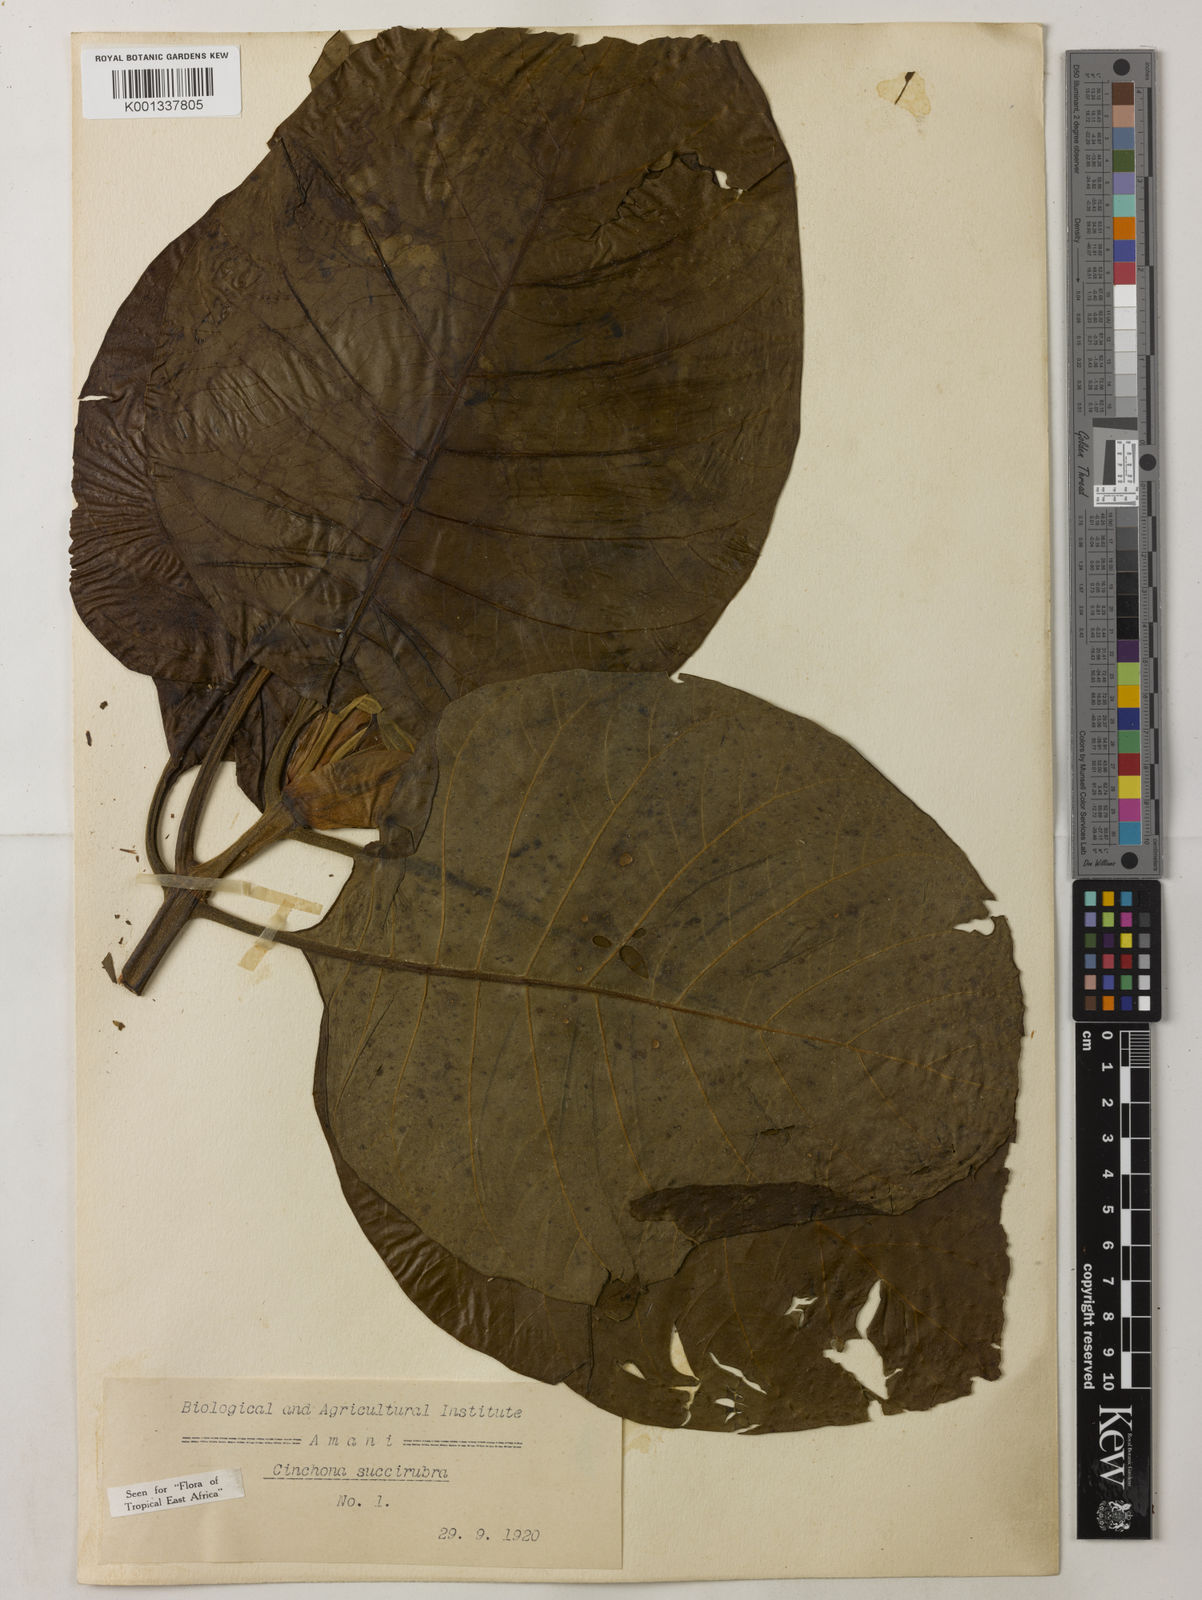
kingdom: Plantae
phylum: Tracheophyta
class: Magnoliopsida
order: Gentianales
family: Rubiaceae
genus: Cinchona
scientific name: Cinchona pubescens
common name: Quinine
